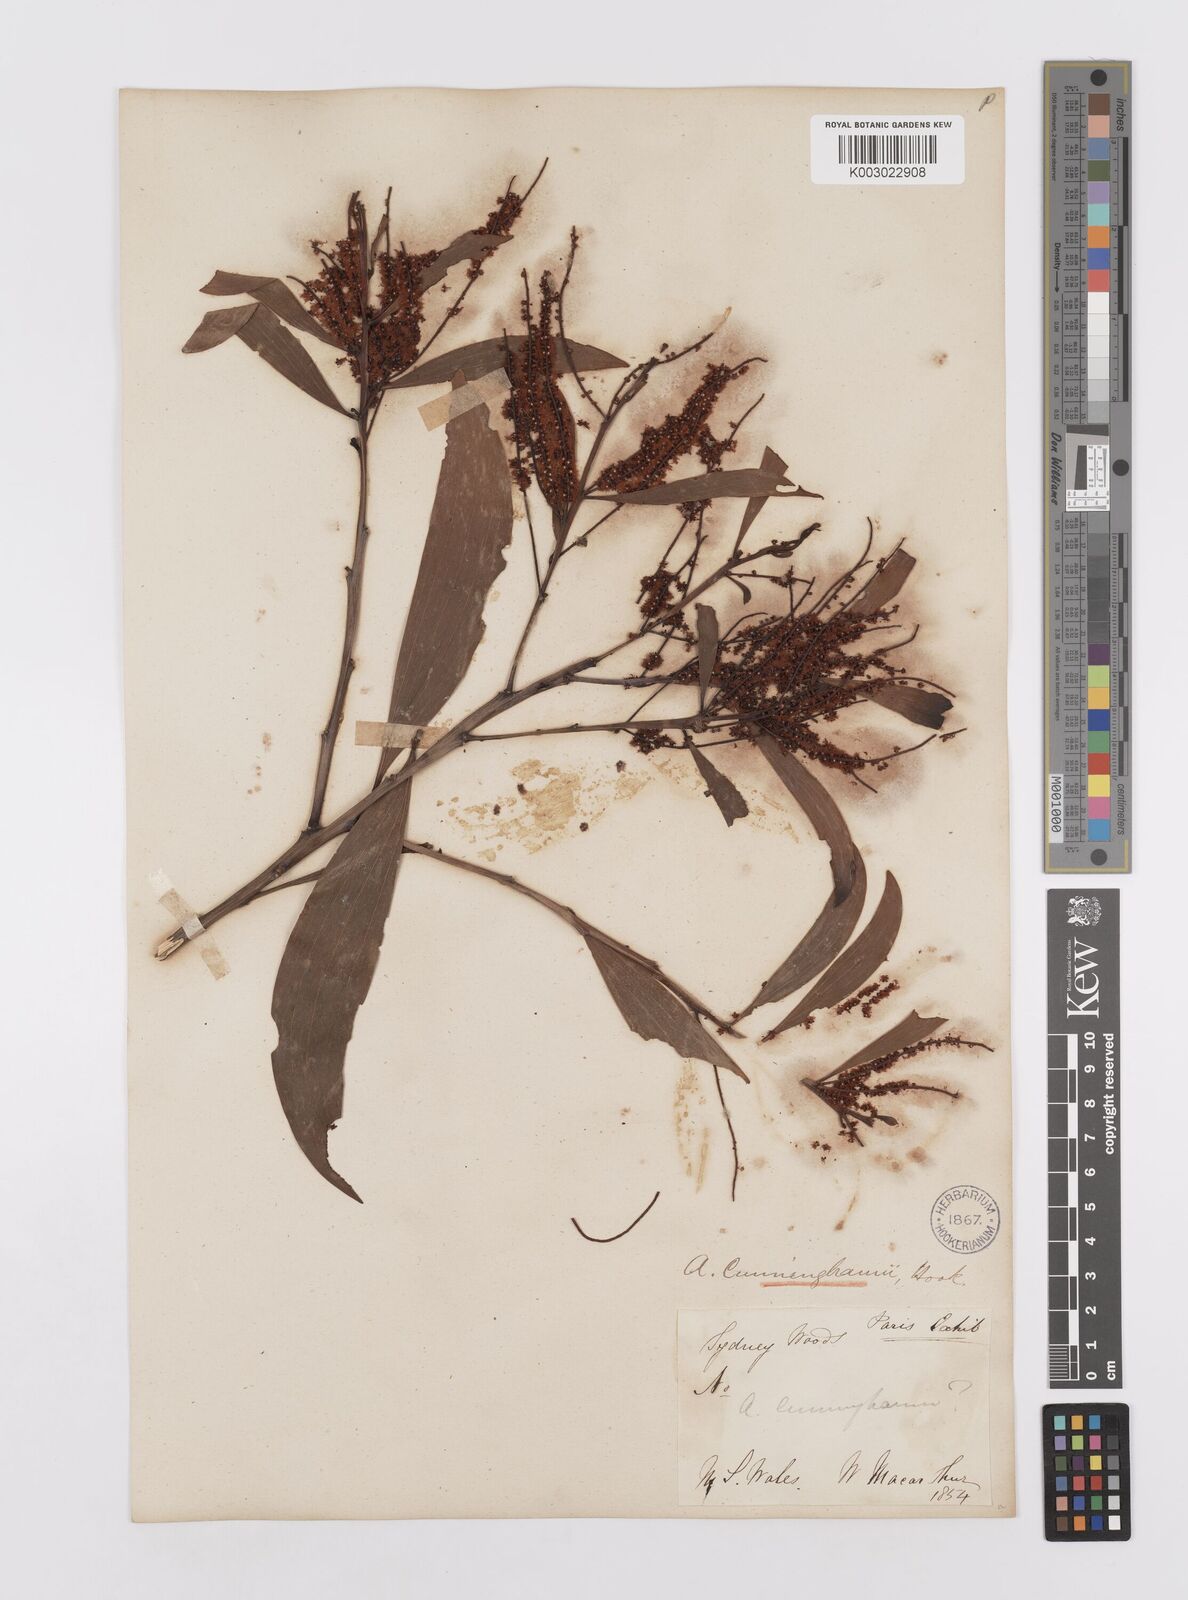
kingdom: Plantae
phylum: Tracheophyta
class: Magnoliopsida
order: Fabales
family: Fabaceae
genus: Acacia
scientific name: Acacia longispicata
